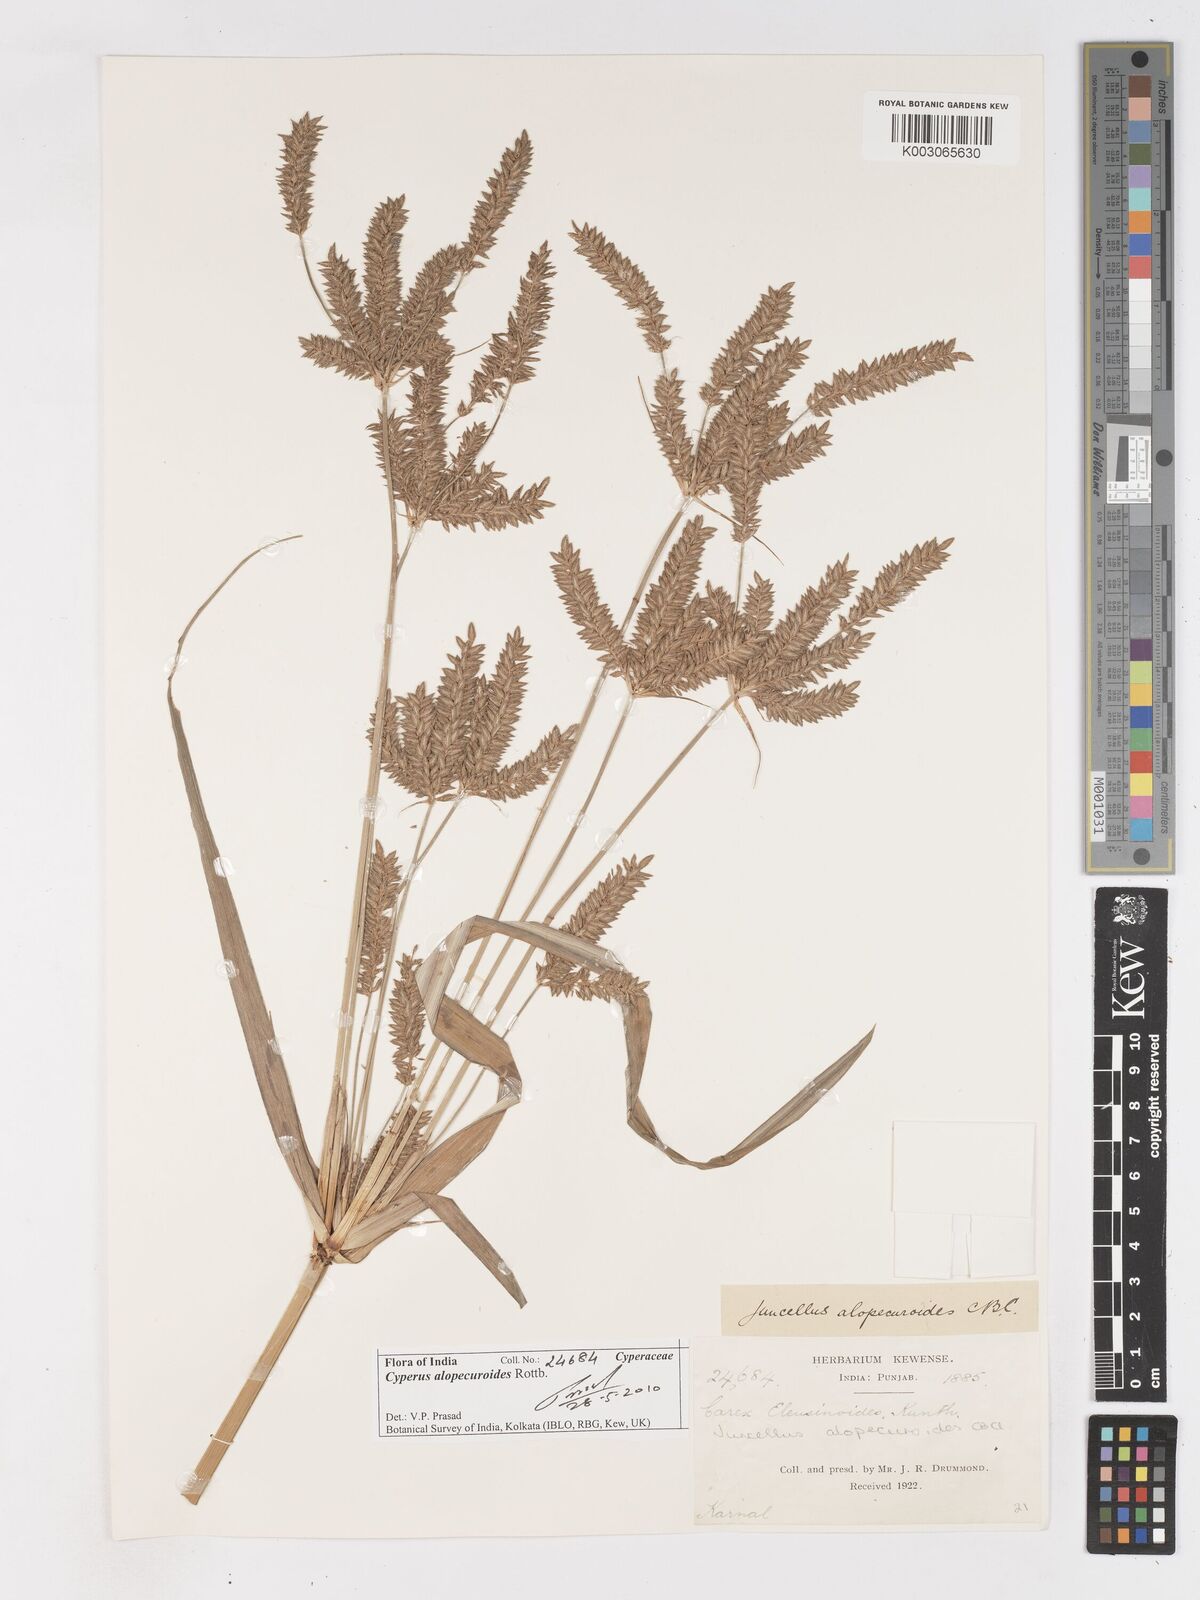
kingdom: Plantae
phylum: Tracheophyta
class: Liliopsida
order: Poales
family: Cyperaceae
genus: Cyperus
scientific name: Cyperus alopecuroides
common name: Foxtail flatsedge
